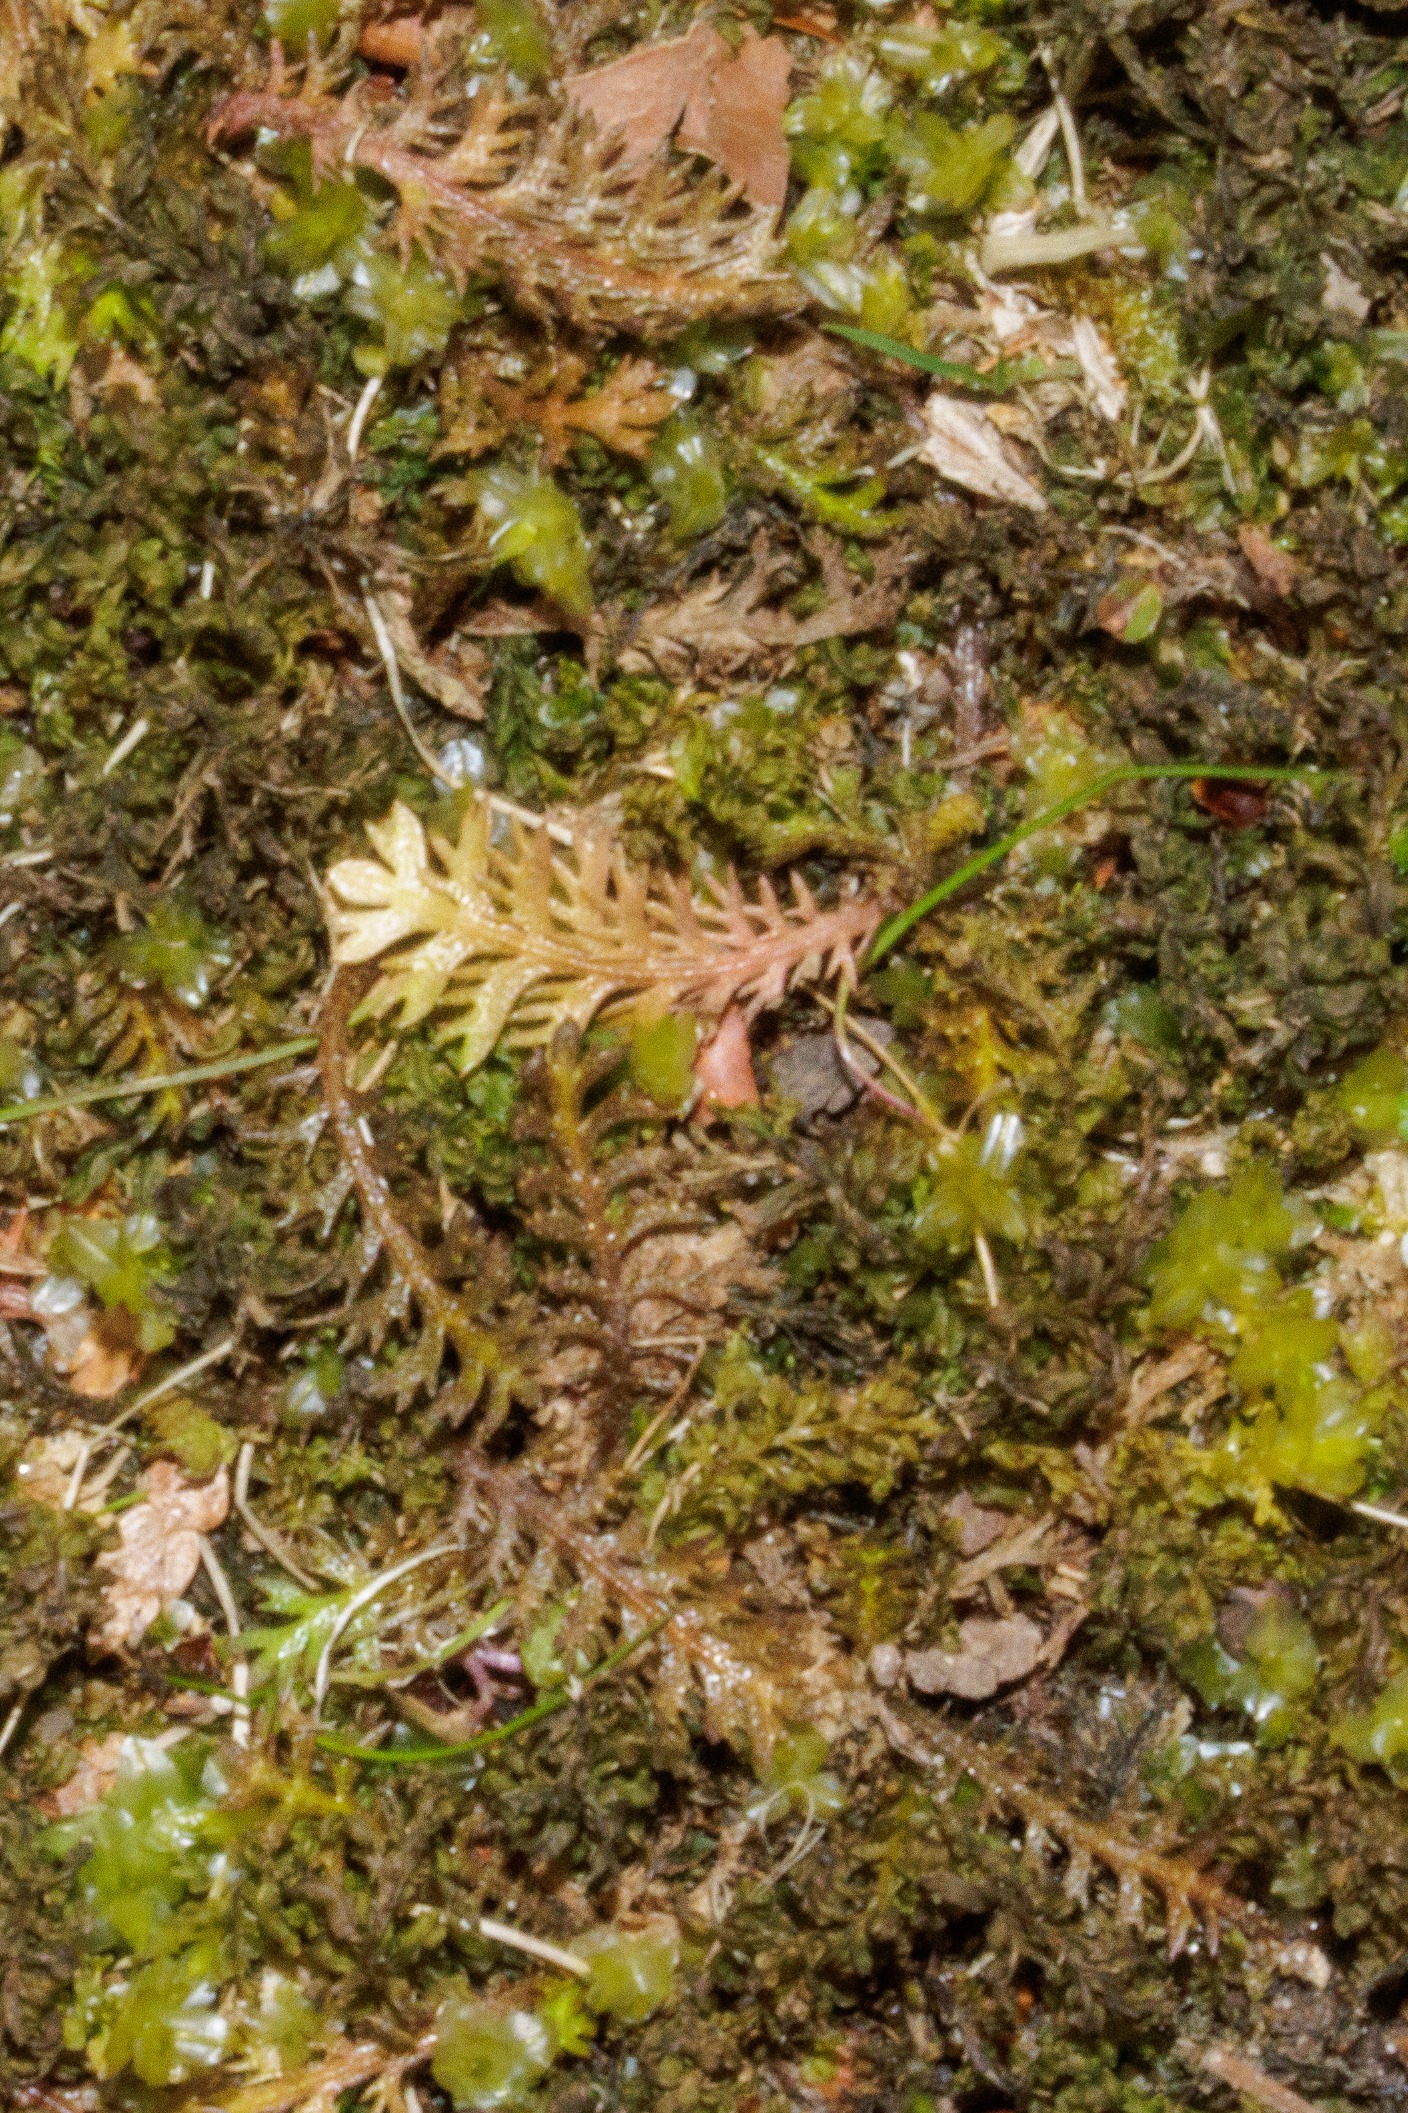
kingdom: Plantae
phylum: Tracheophyta
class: Magnoliopsida
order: Asterales
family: Asteraceae
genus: Leptinella
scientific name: Leptinella squalida
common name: Trædebregne
